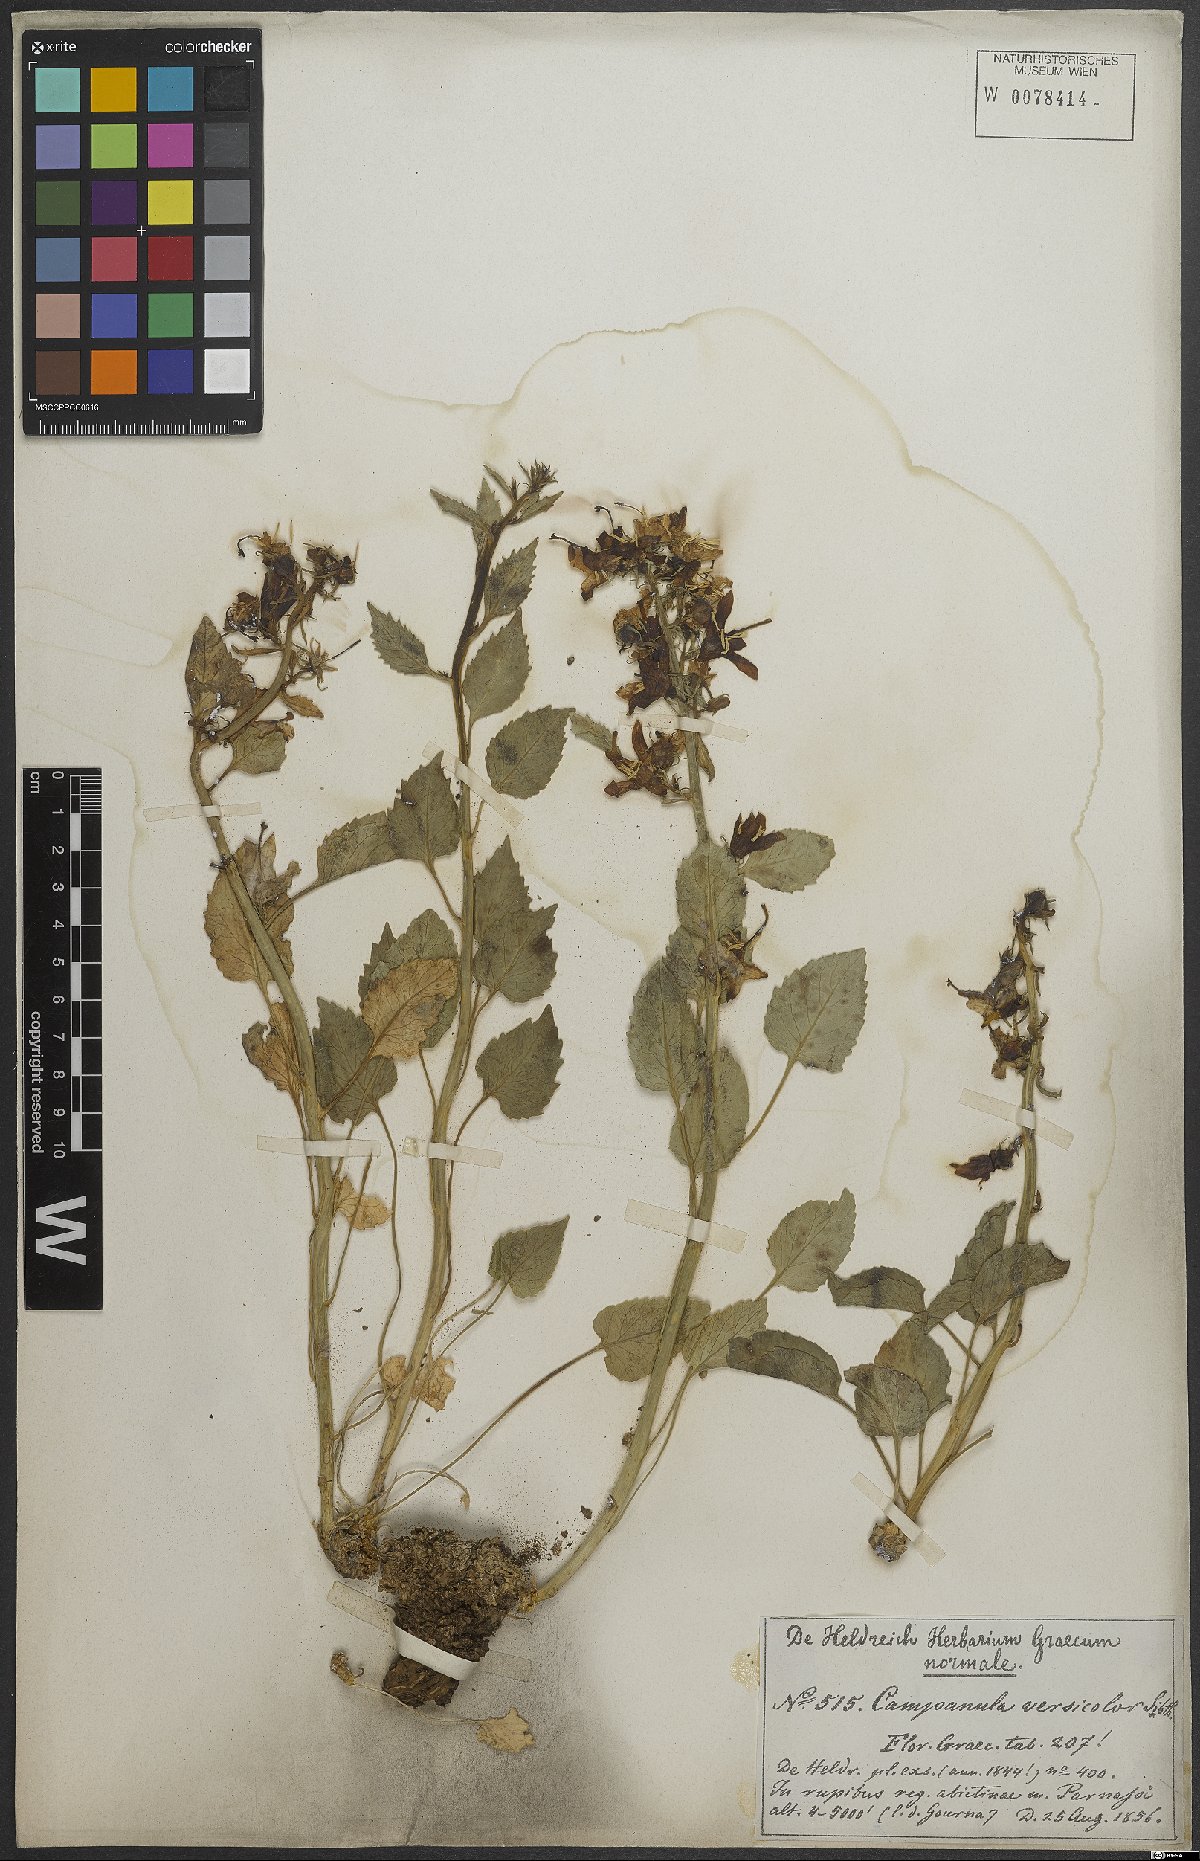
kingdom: Plantae
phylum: Tracheophyta
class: Magnoliopsida
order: Asterales
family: Campanulaceae
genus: Campanula
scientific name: Campanula versicolor
